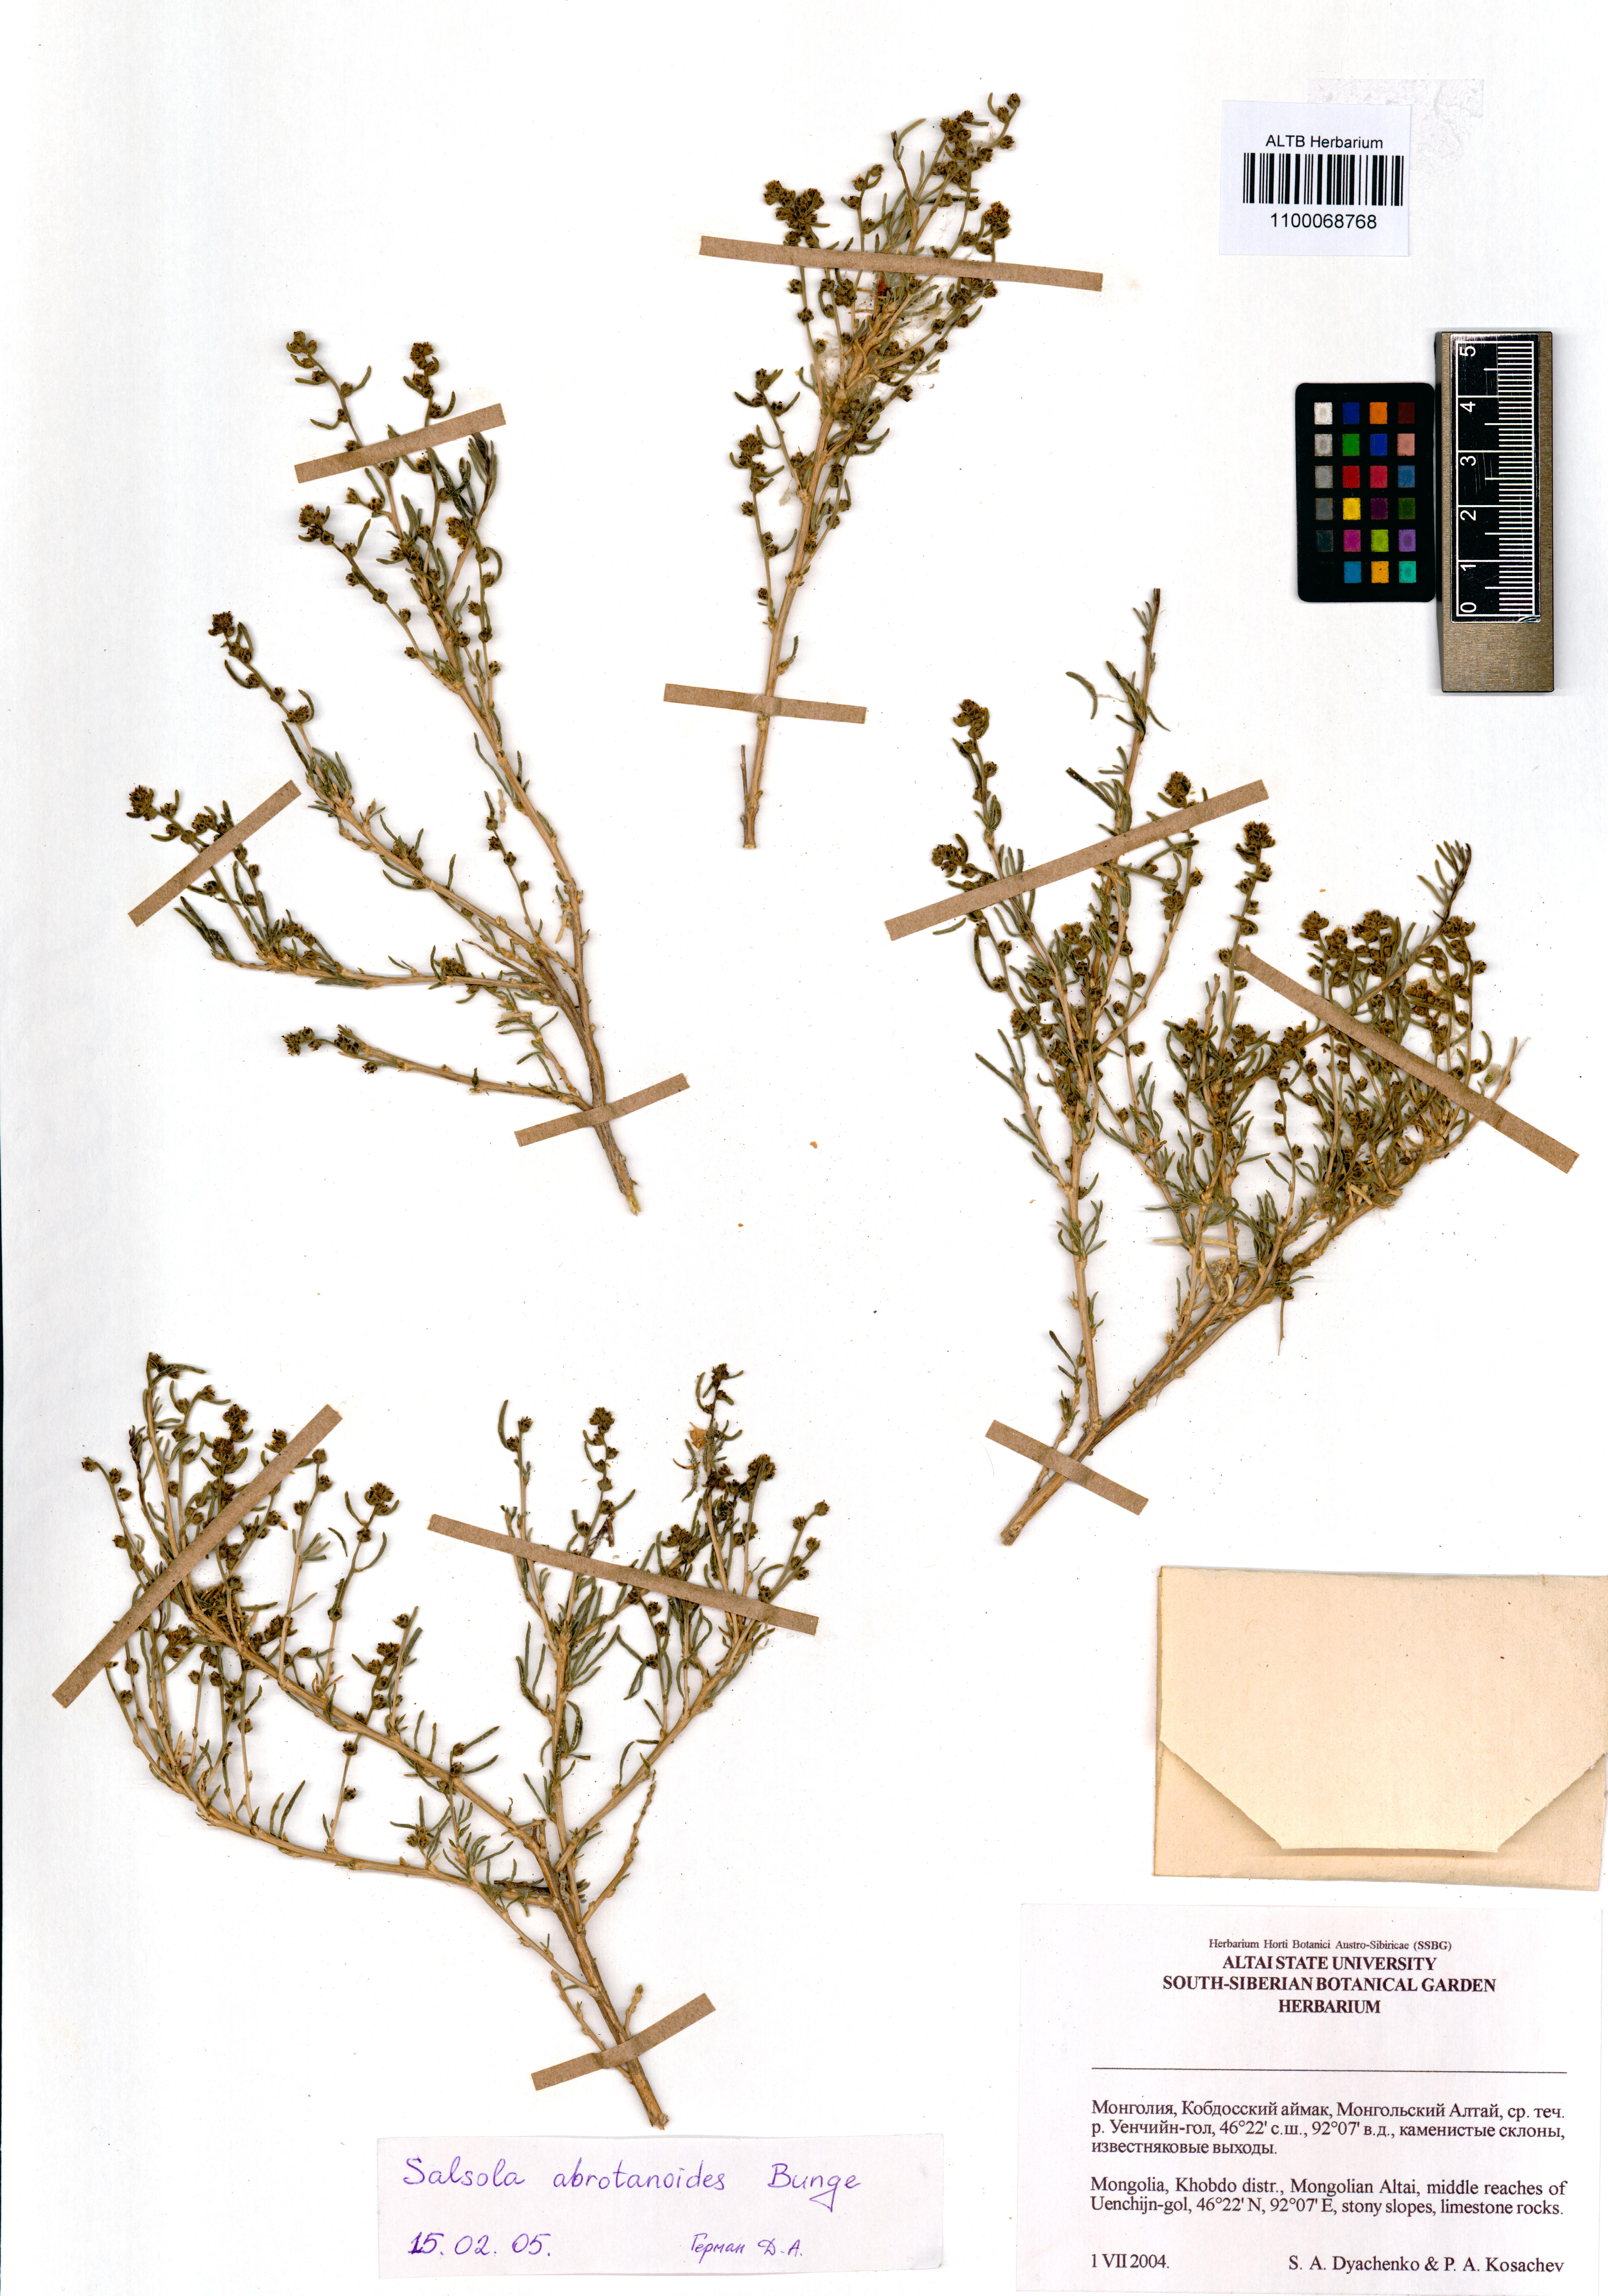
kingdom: Plantae
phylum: Tracheophyta
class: Magnoliopsida
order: Caryophyllales
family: Amaranthaceae
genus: Oreosalsola
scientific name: Oreosalsola abrotanoides
